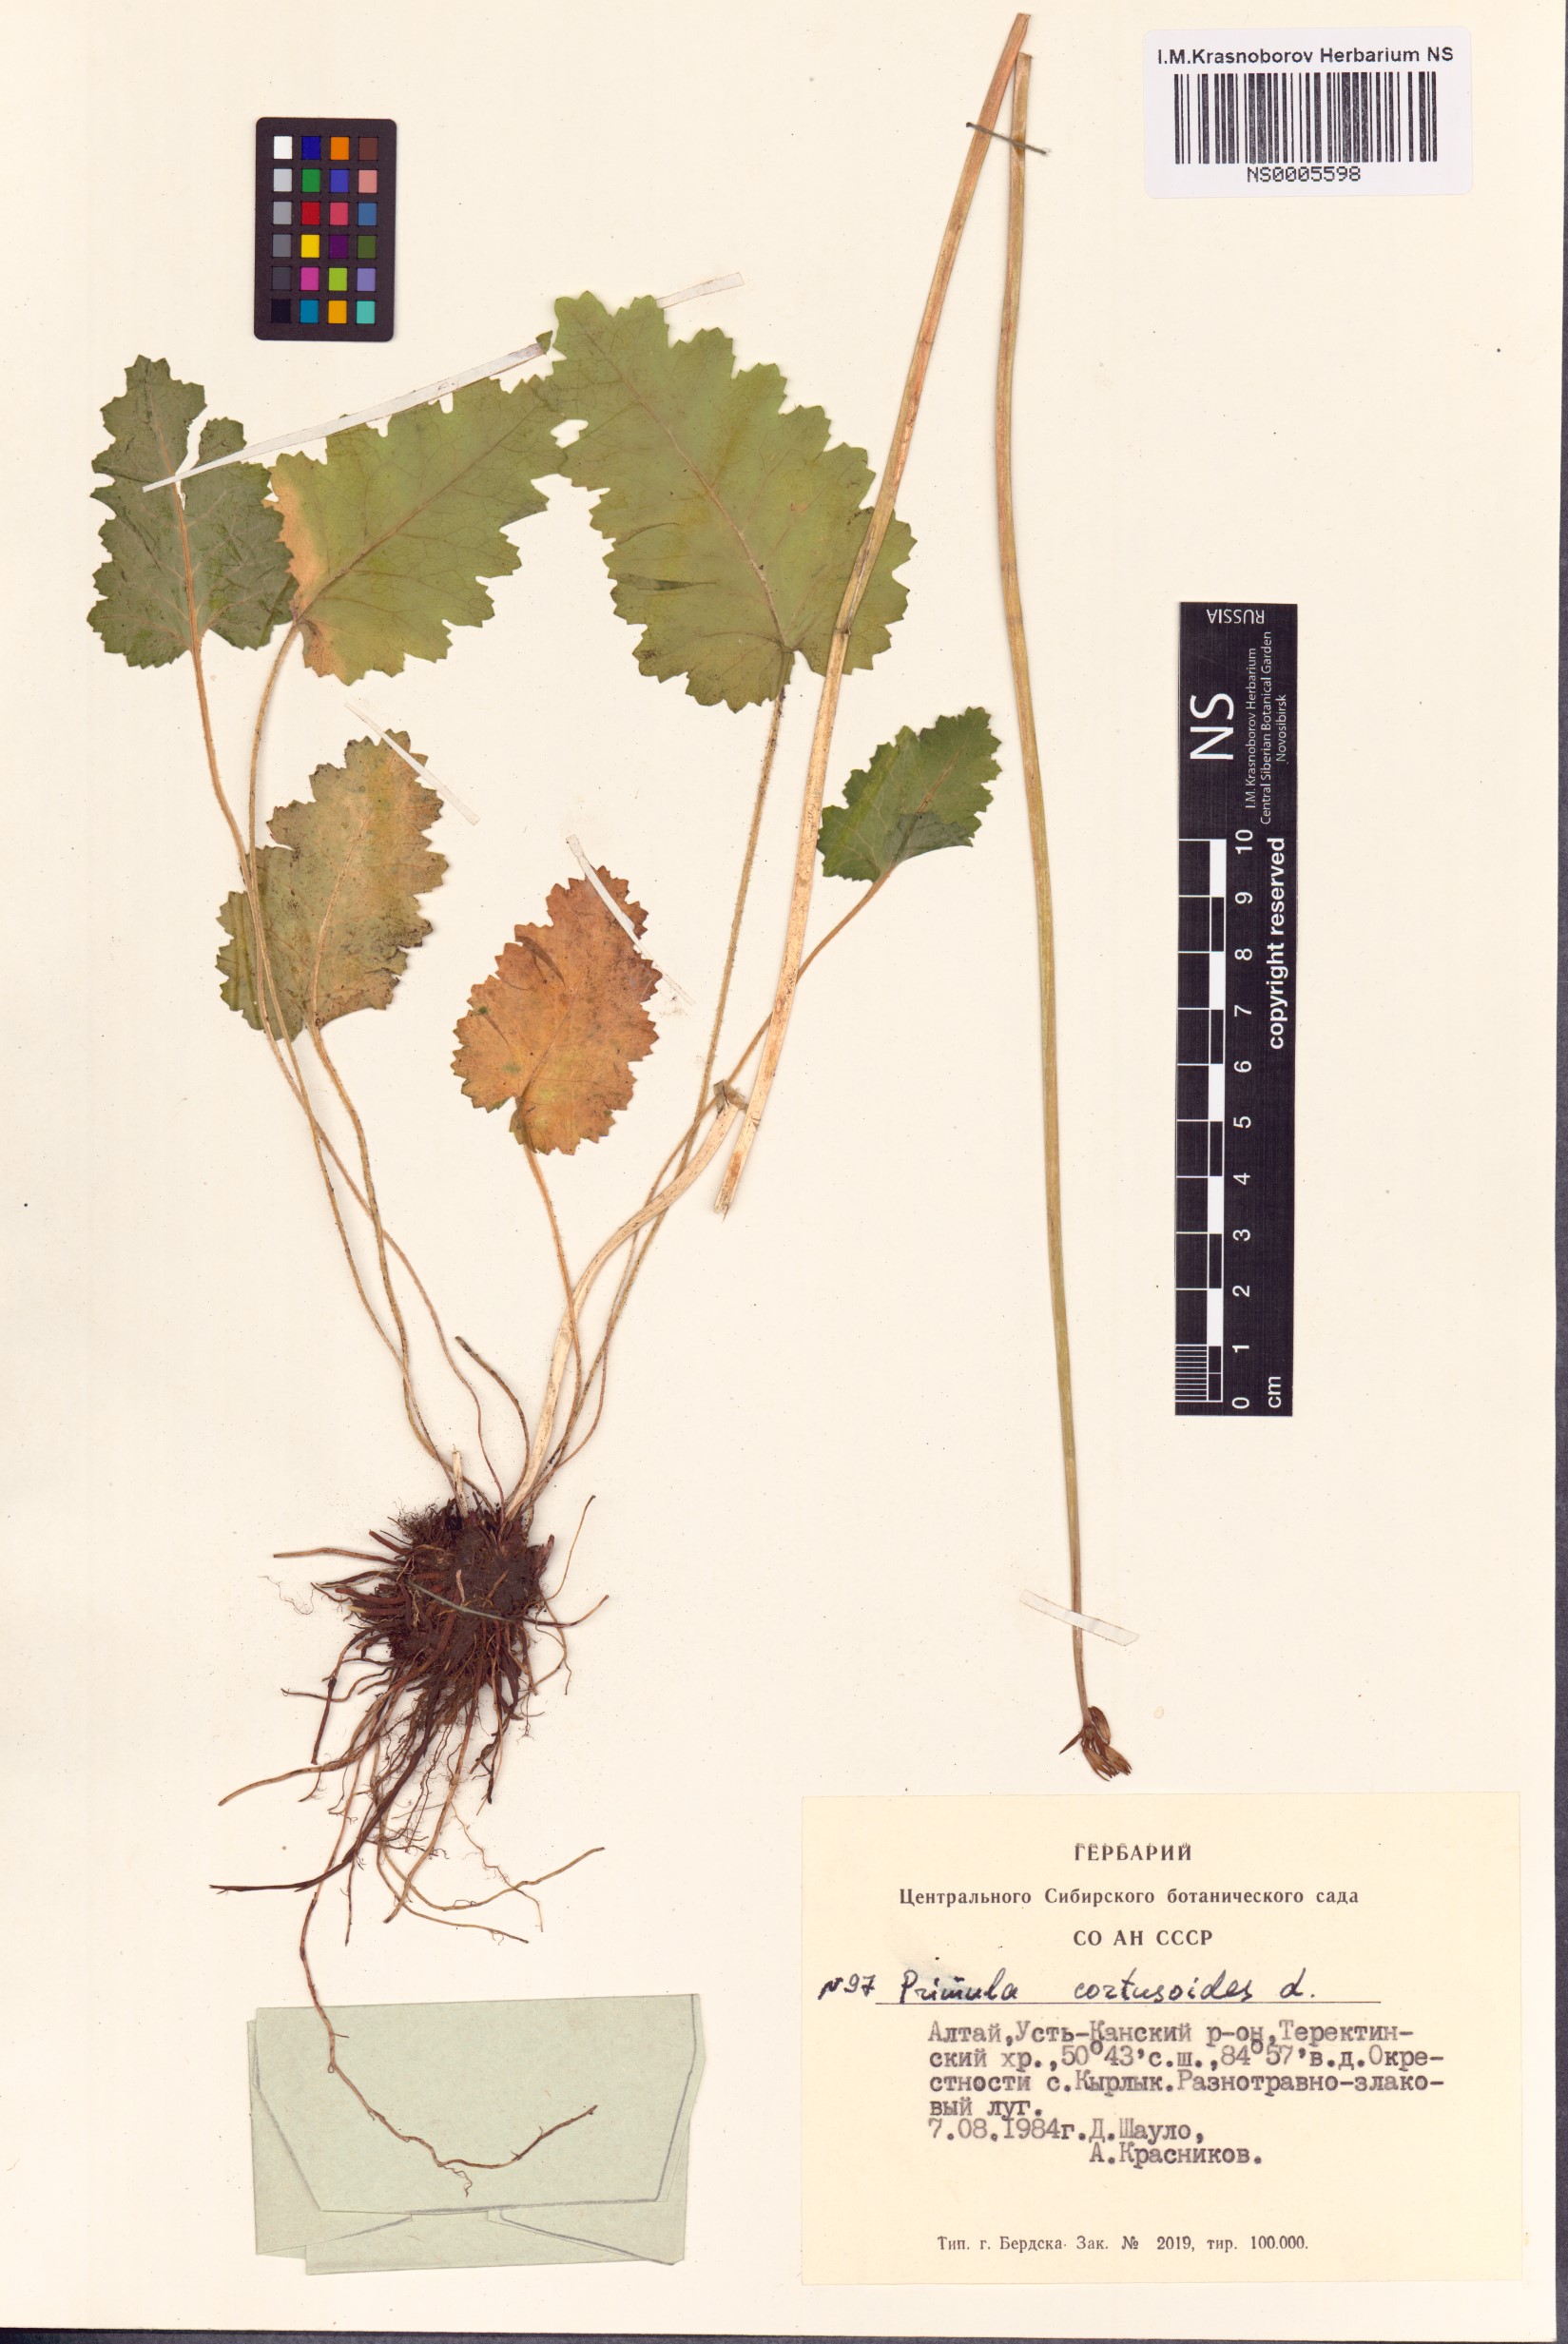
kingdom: Plantae
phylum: Tracheophyta
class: Magnoliopsida
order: Ericales
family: Primulaceae
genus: Primula
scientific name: Primula cortusoides
